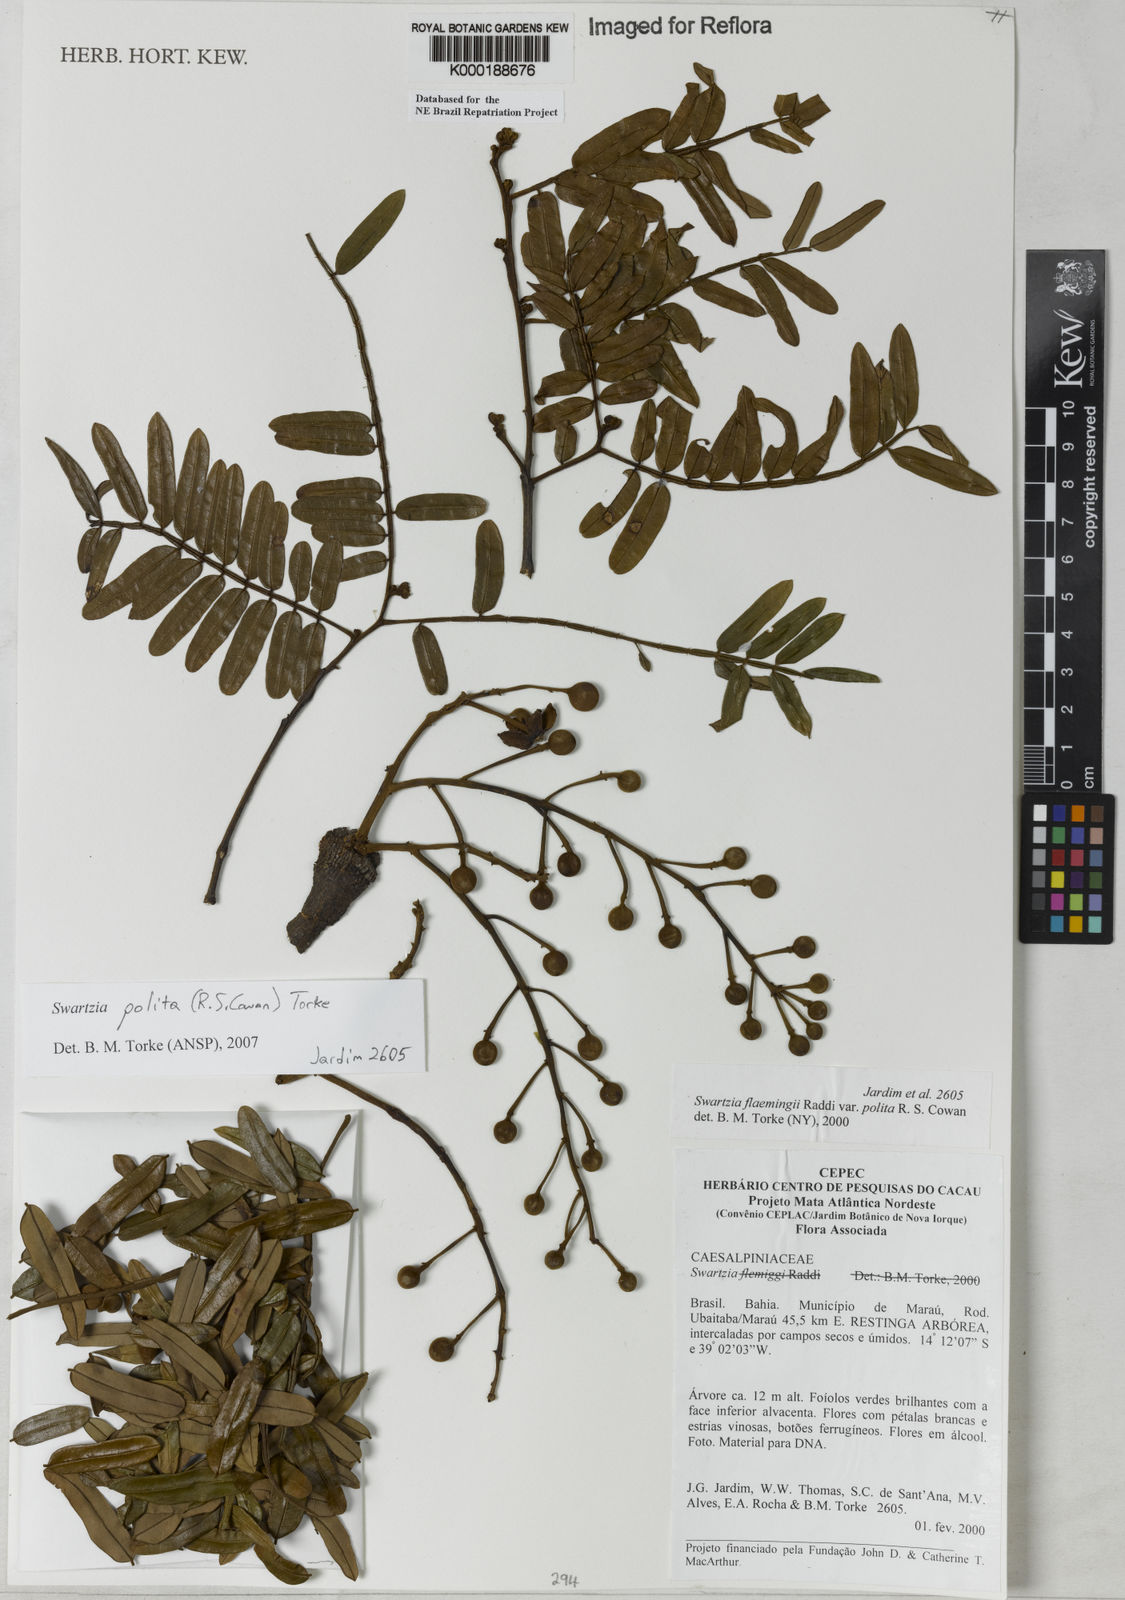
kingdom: Plantae
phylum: Tracheophyta
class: Magnoliopsida
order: Fabales
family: Fabaceae
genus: Swartzia
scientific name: Swartzia flaemingii
